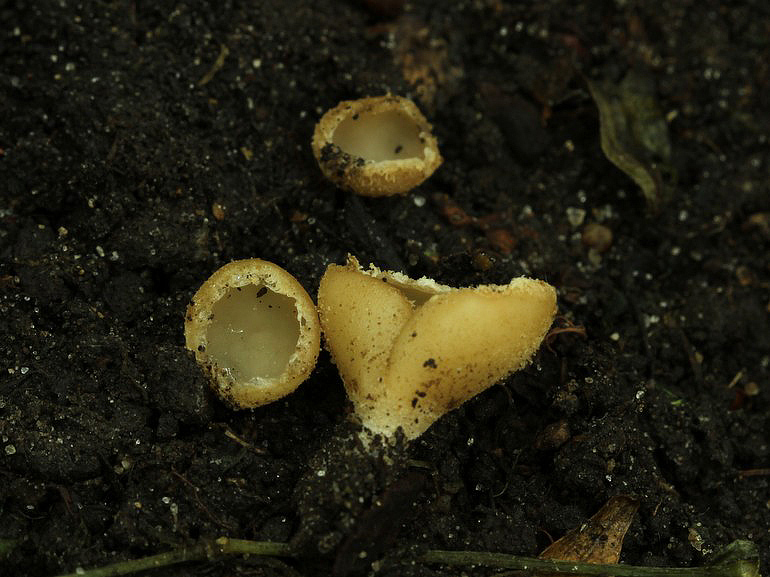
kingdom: Fungi
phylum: Ascomycota
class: Pezizomycetes
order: Pezizales
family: Pyronemataceae
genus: Tarzetta
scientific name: Tarzetta cupularis
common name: gulbrun pokalbæger
